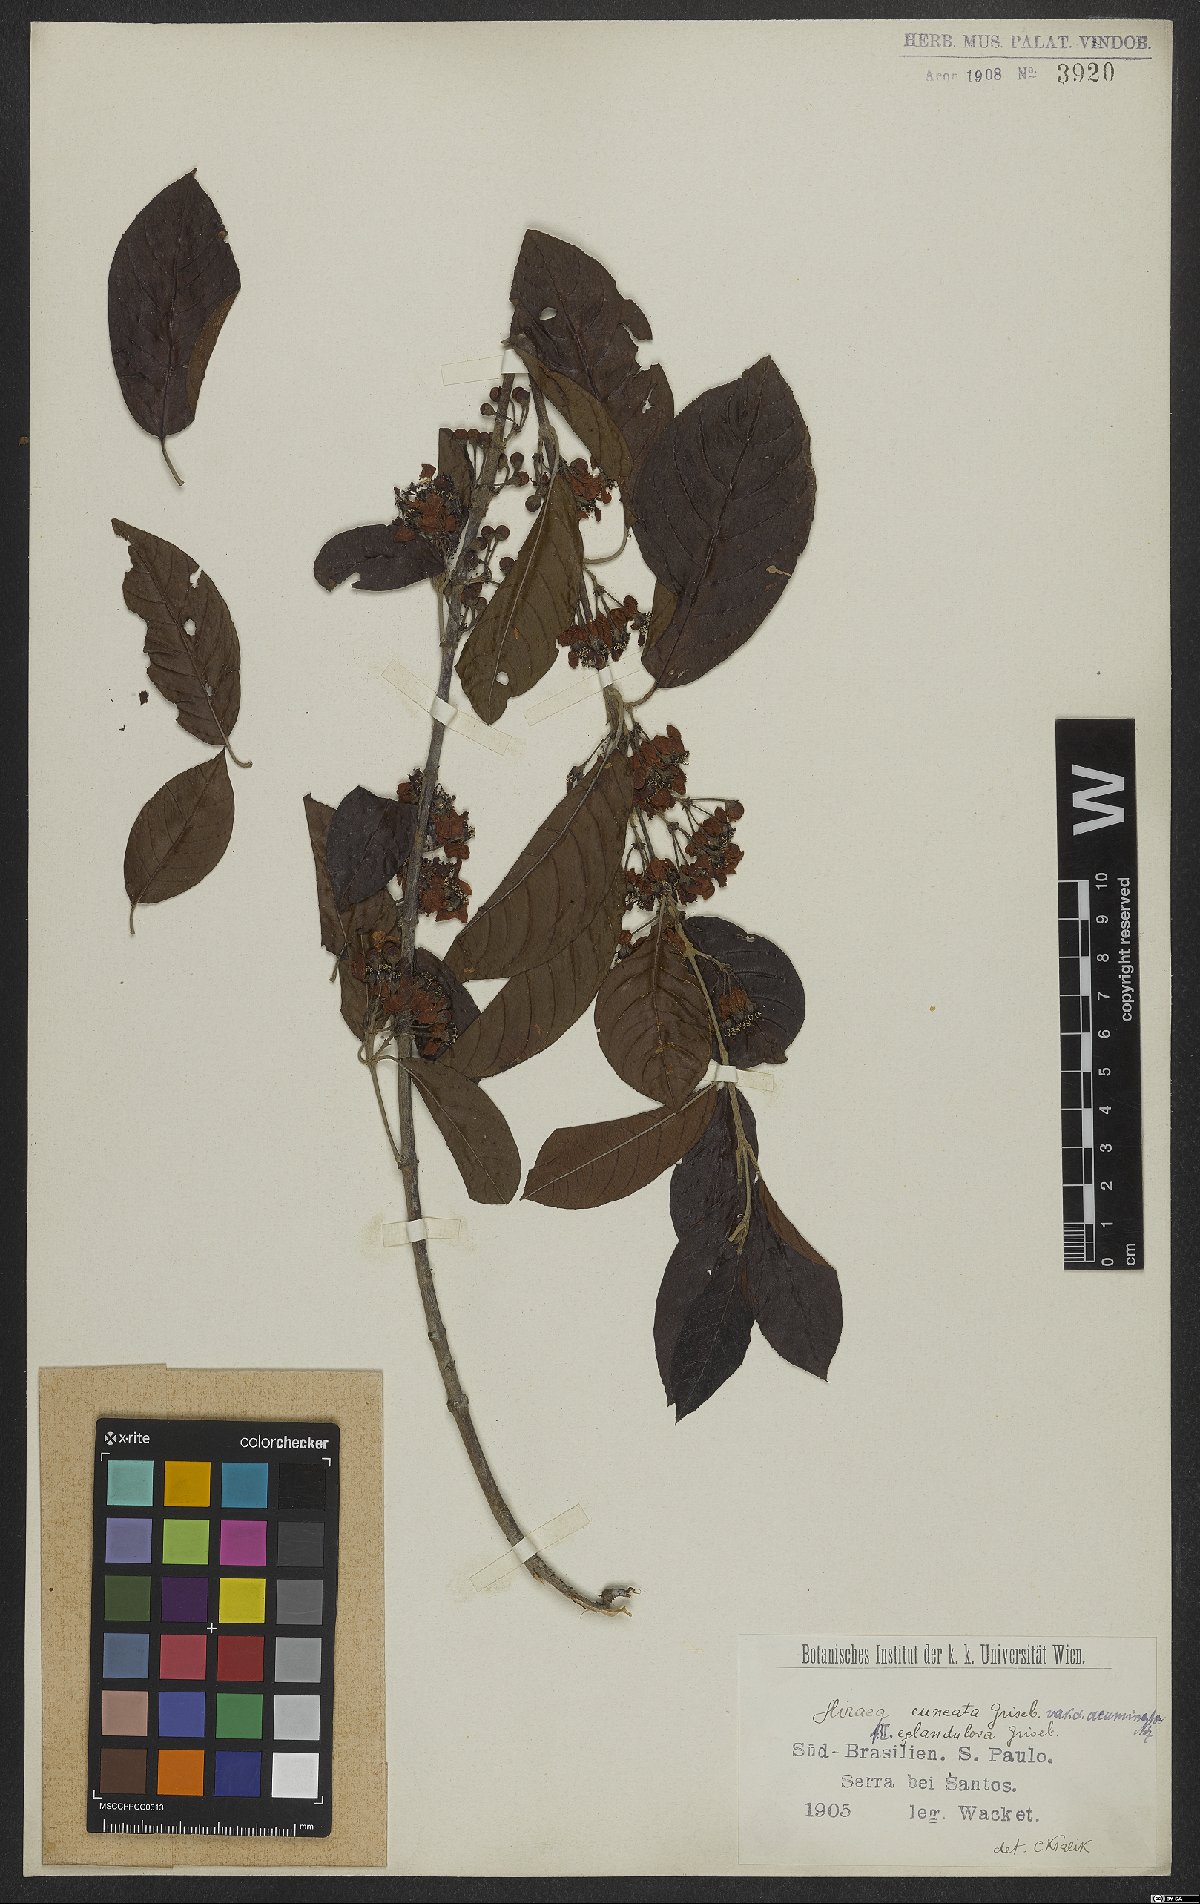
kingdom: Plantae
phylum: Tracheophyta
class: Magnoliopsida
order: Malpighiales
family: Malpighiaceae
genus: Hiraea
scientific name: Hiraea cuneata
